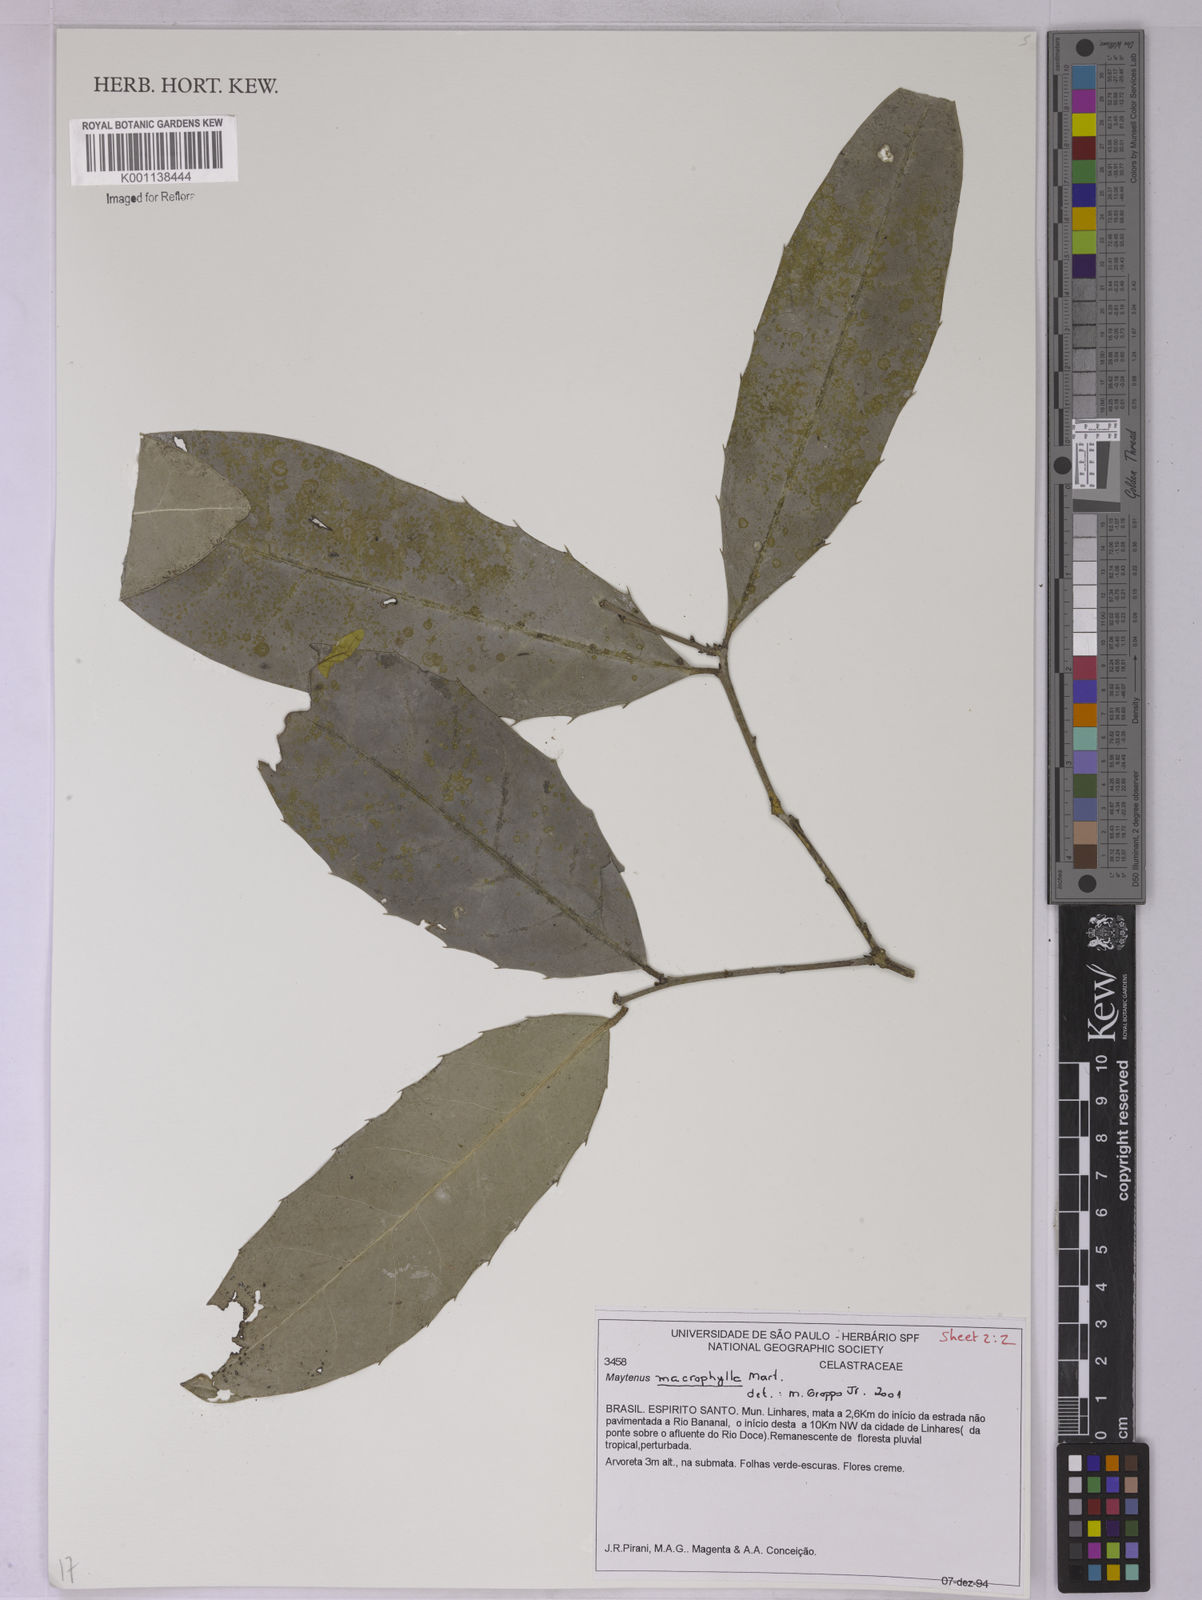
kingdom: Plantae
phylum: Tracheophyta
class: Magnoliopsida
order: Celastrales
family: Celastraceae
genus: Monteverdia
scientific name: Monteverdia macrophylla
